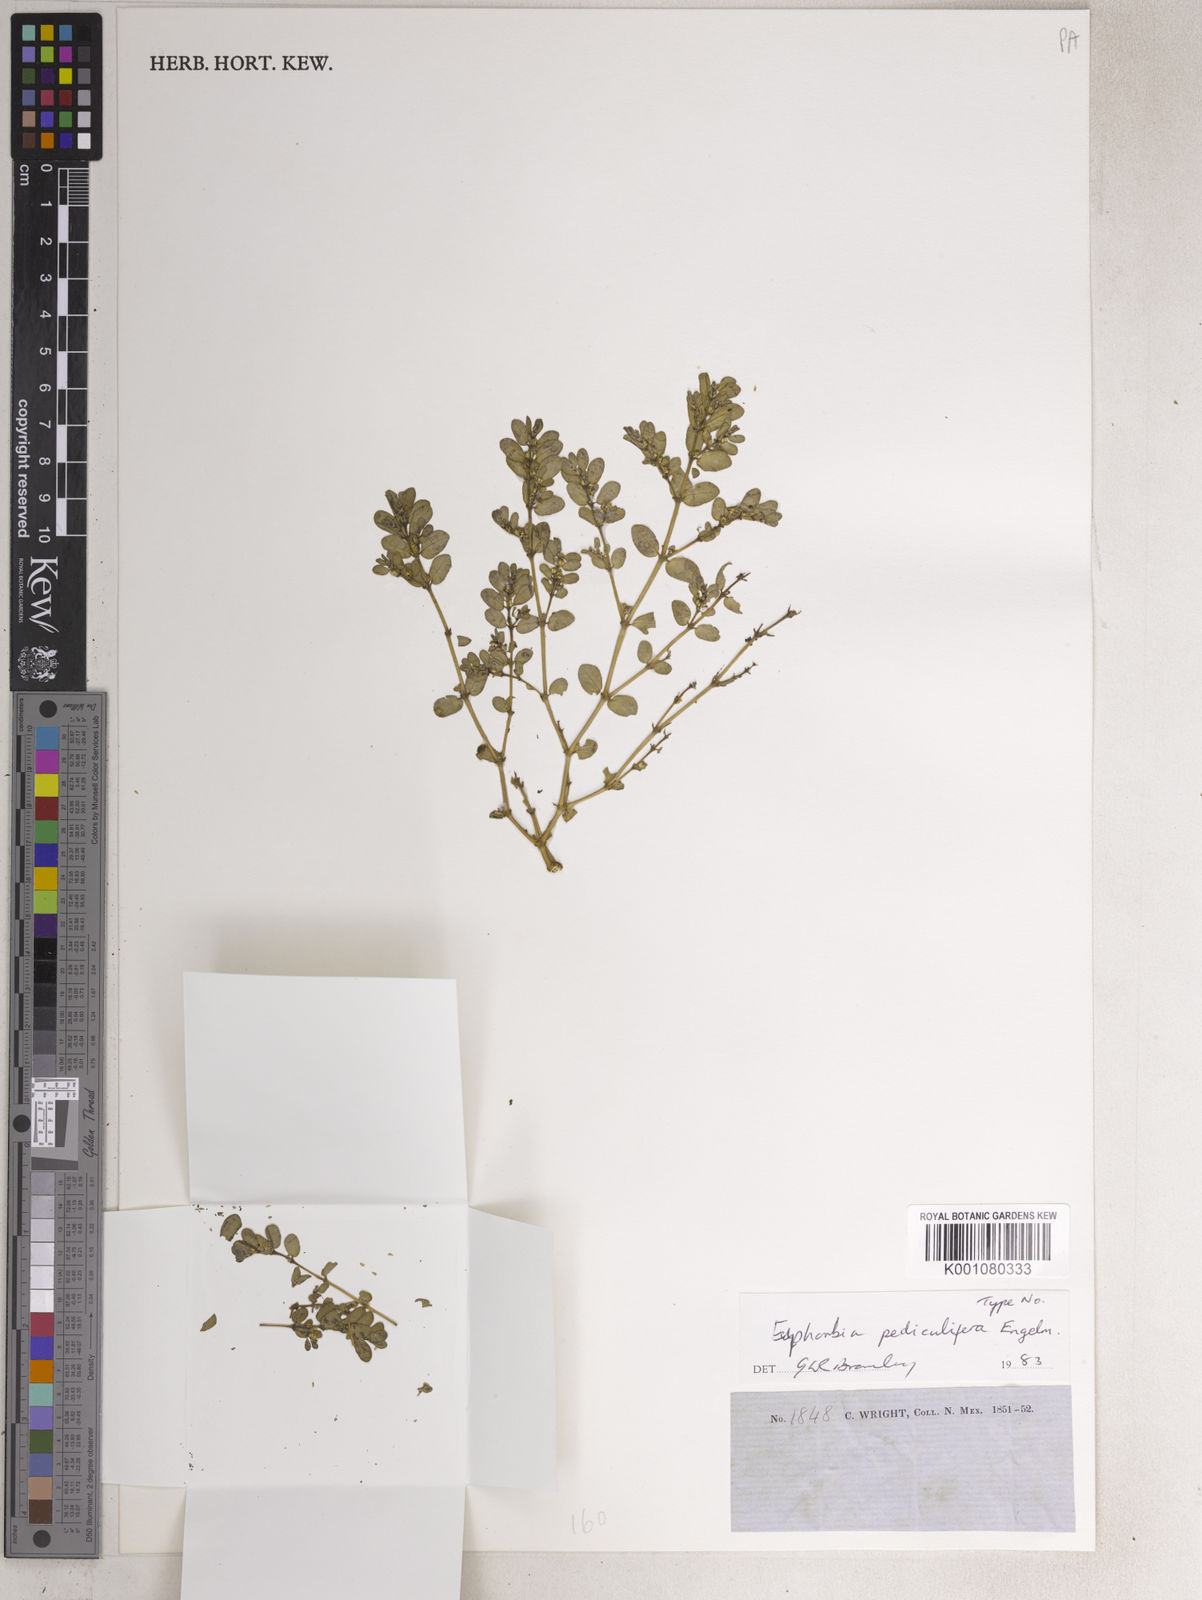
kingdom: Plantae
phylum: Tracheophyta
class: Magnoliopsida
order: Malpighiales
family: Euphorbiaceae
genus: Euphorbia
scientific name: Euphorbia pediculifera
